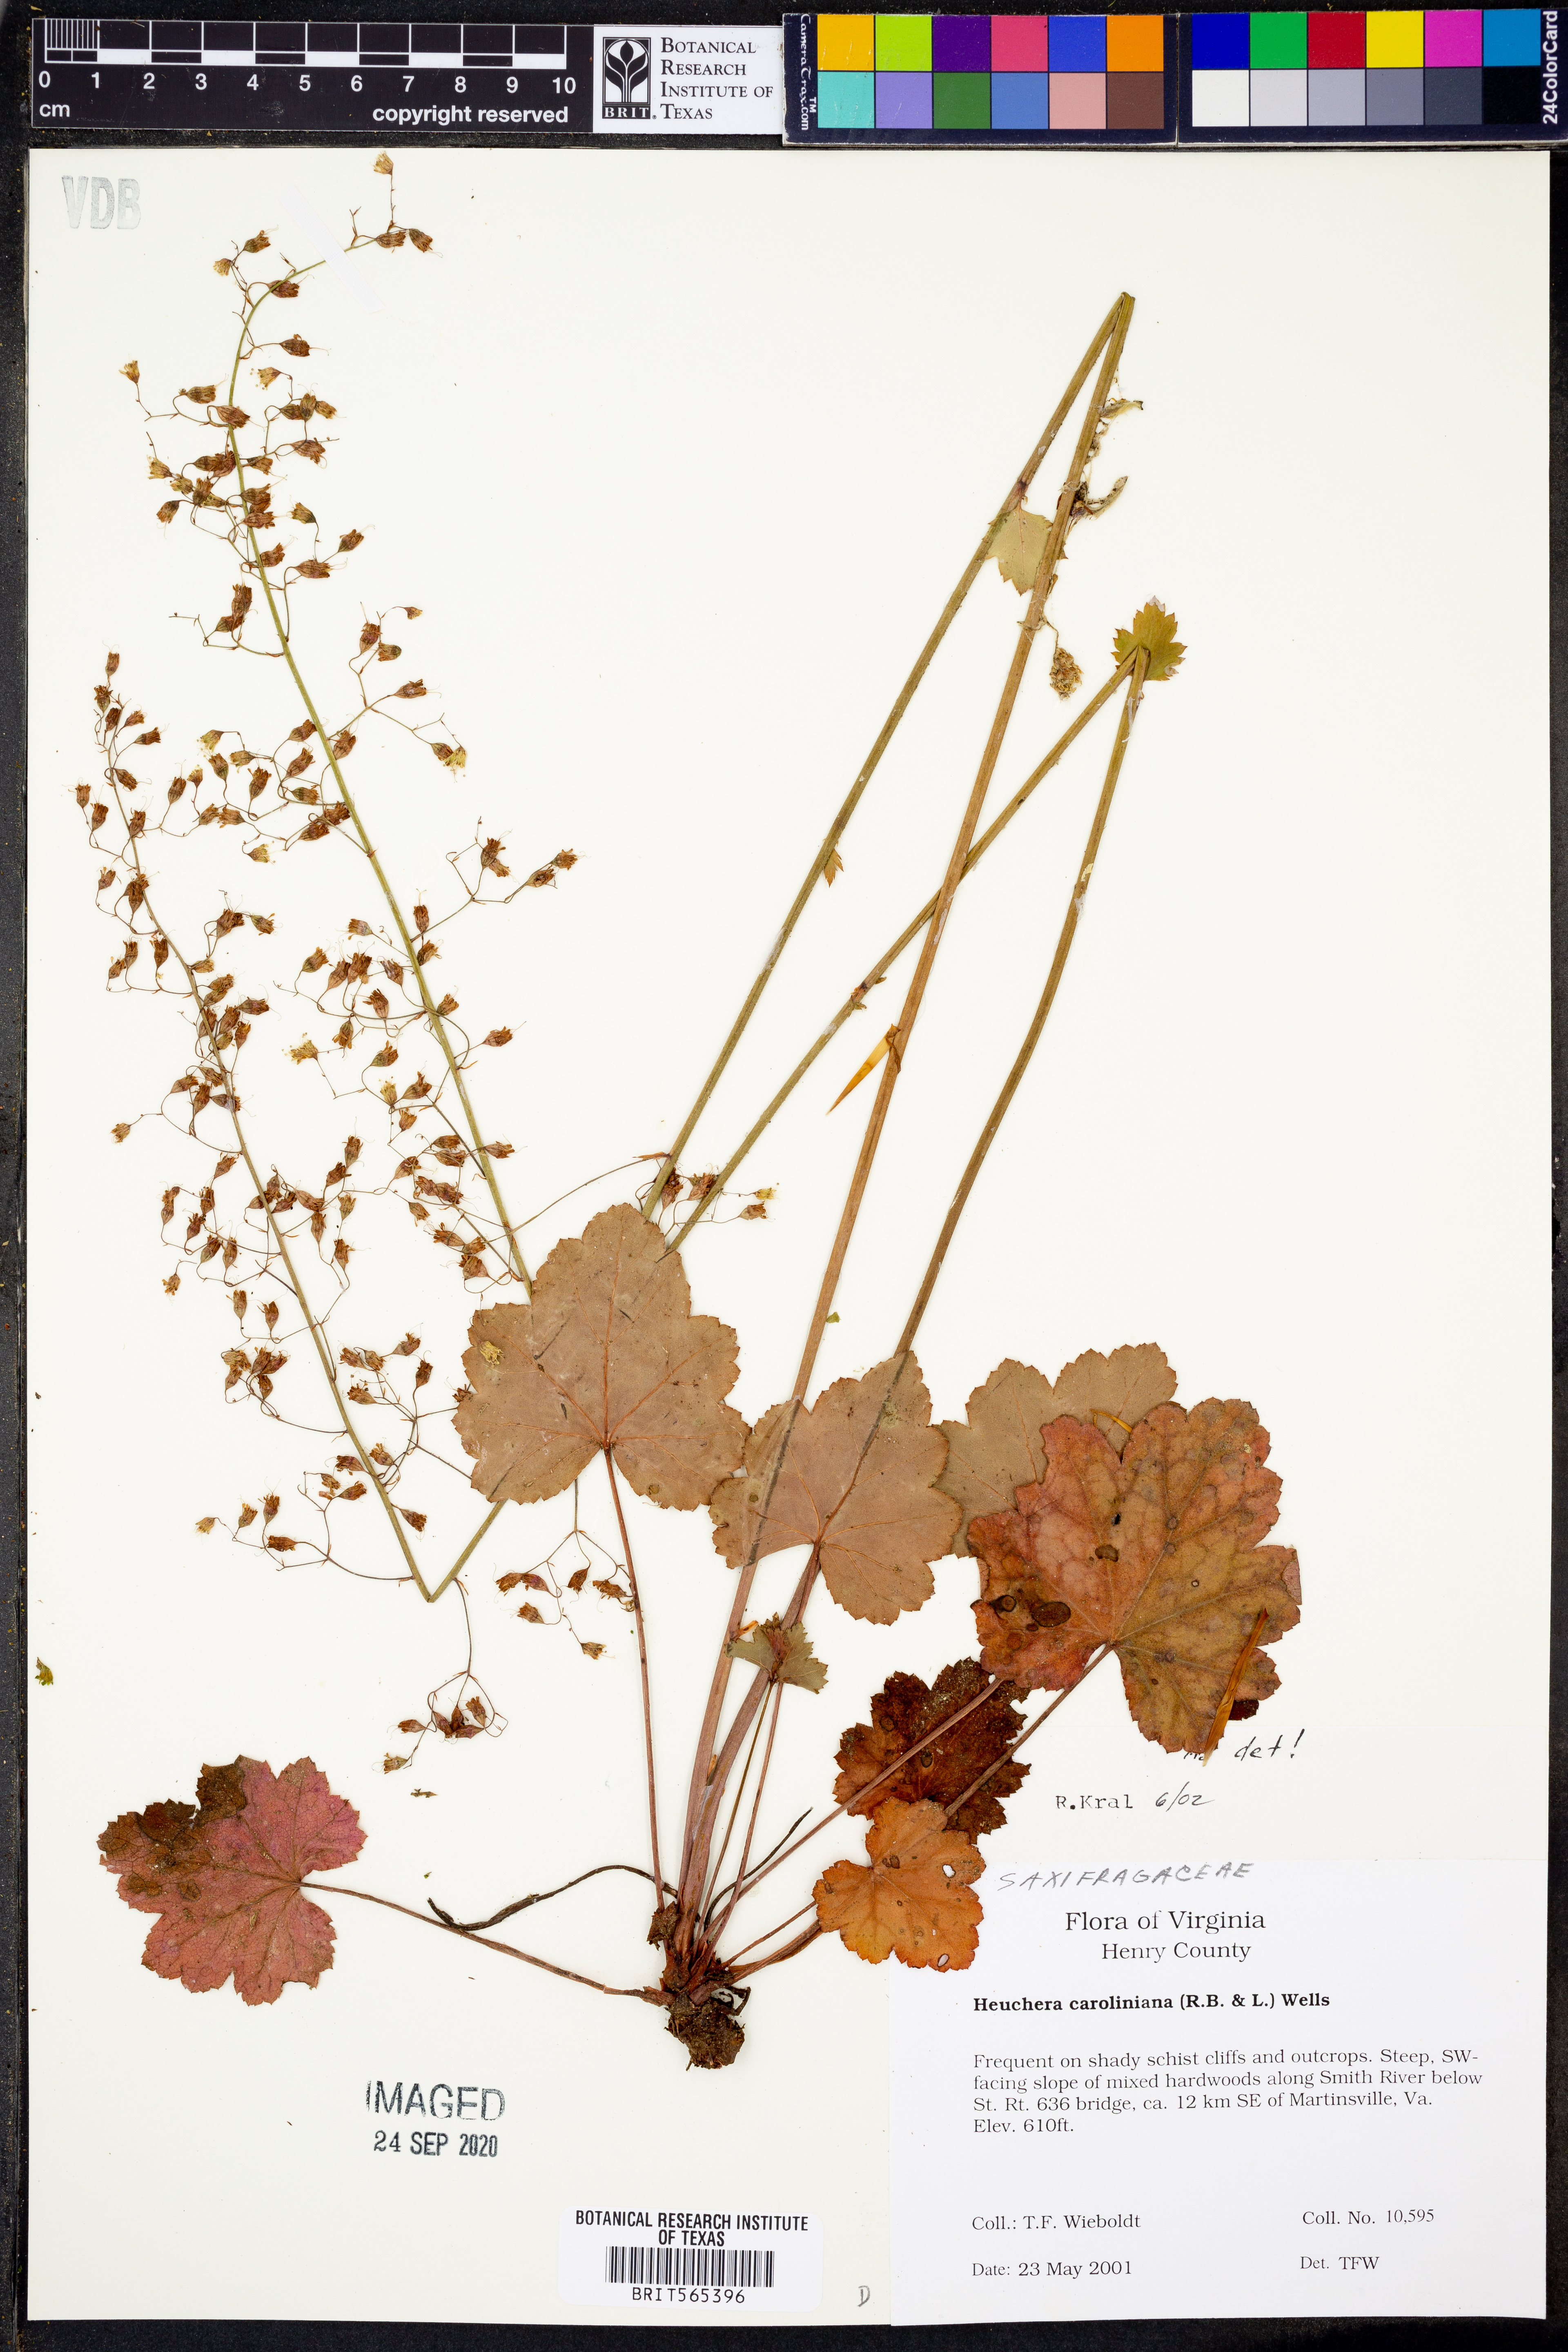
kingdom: Plantae
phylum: Tracheophyta
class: Magnoliopsida
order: Saxifragales
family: Saxifragaceae
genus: Heuchera
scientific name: Heuchera caroliniana
